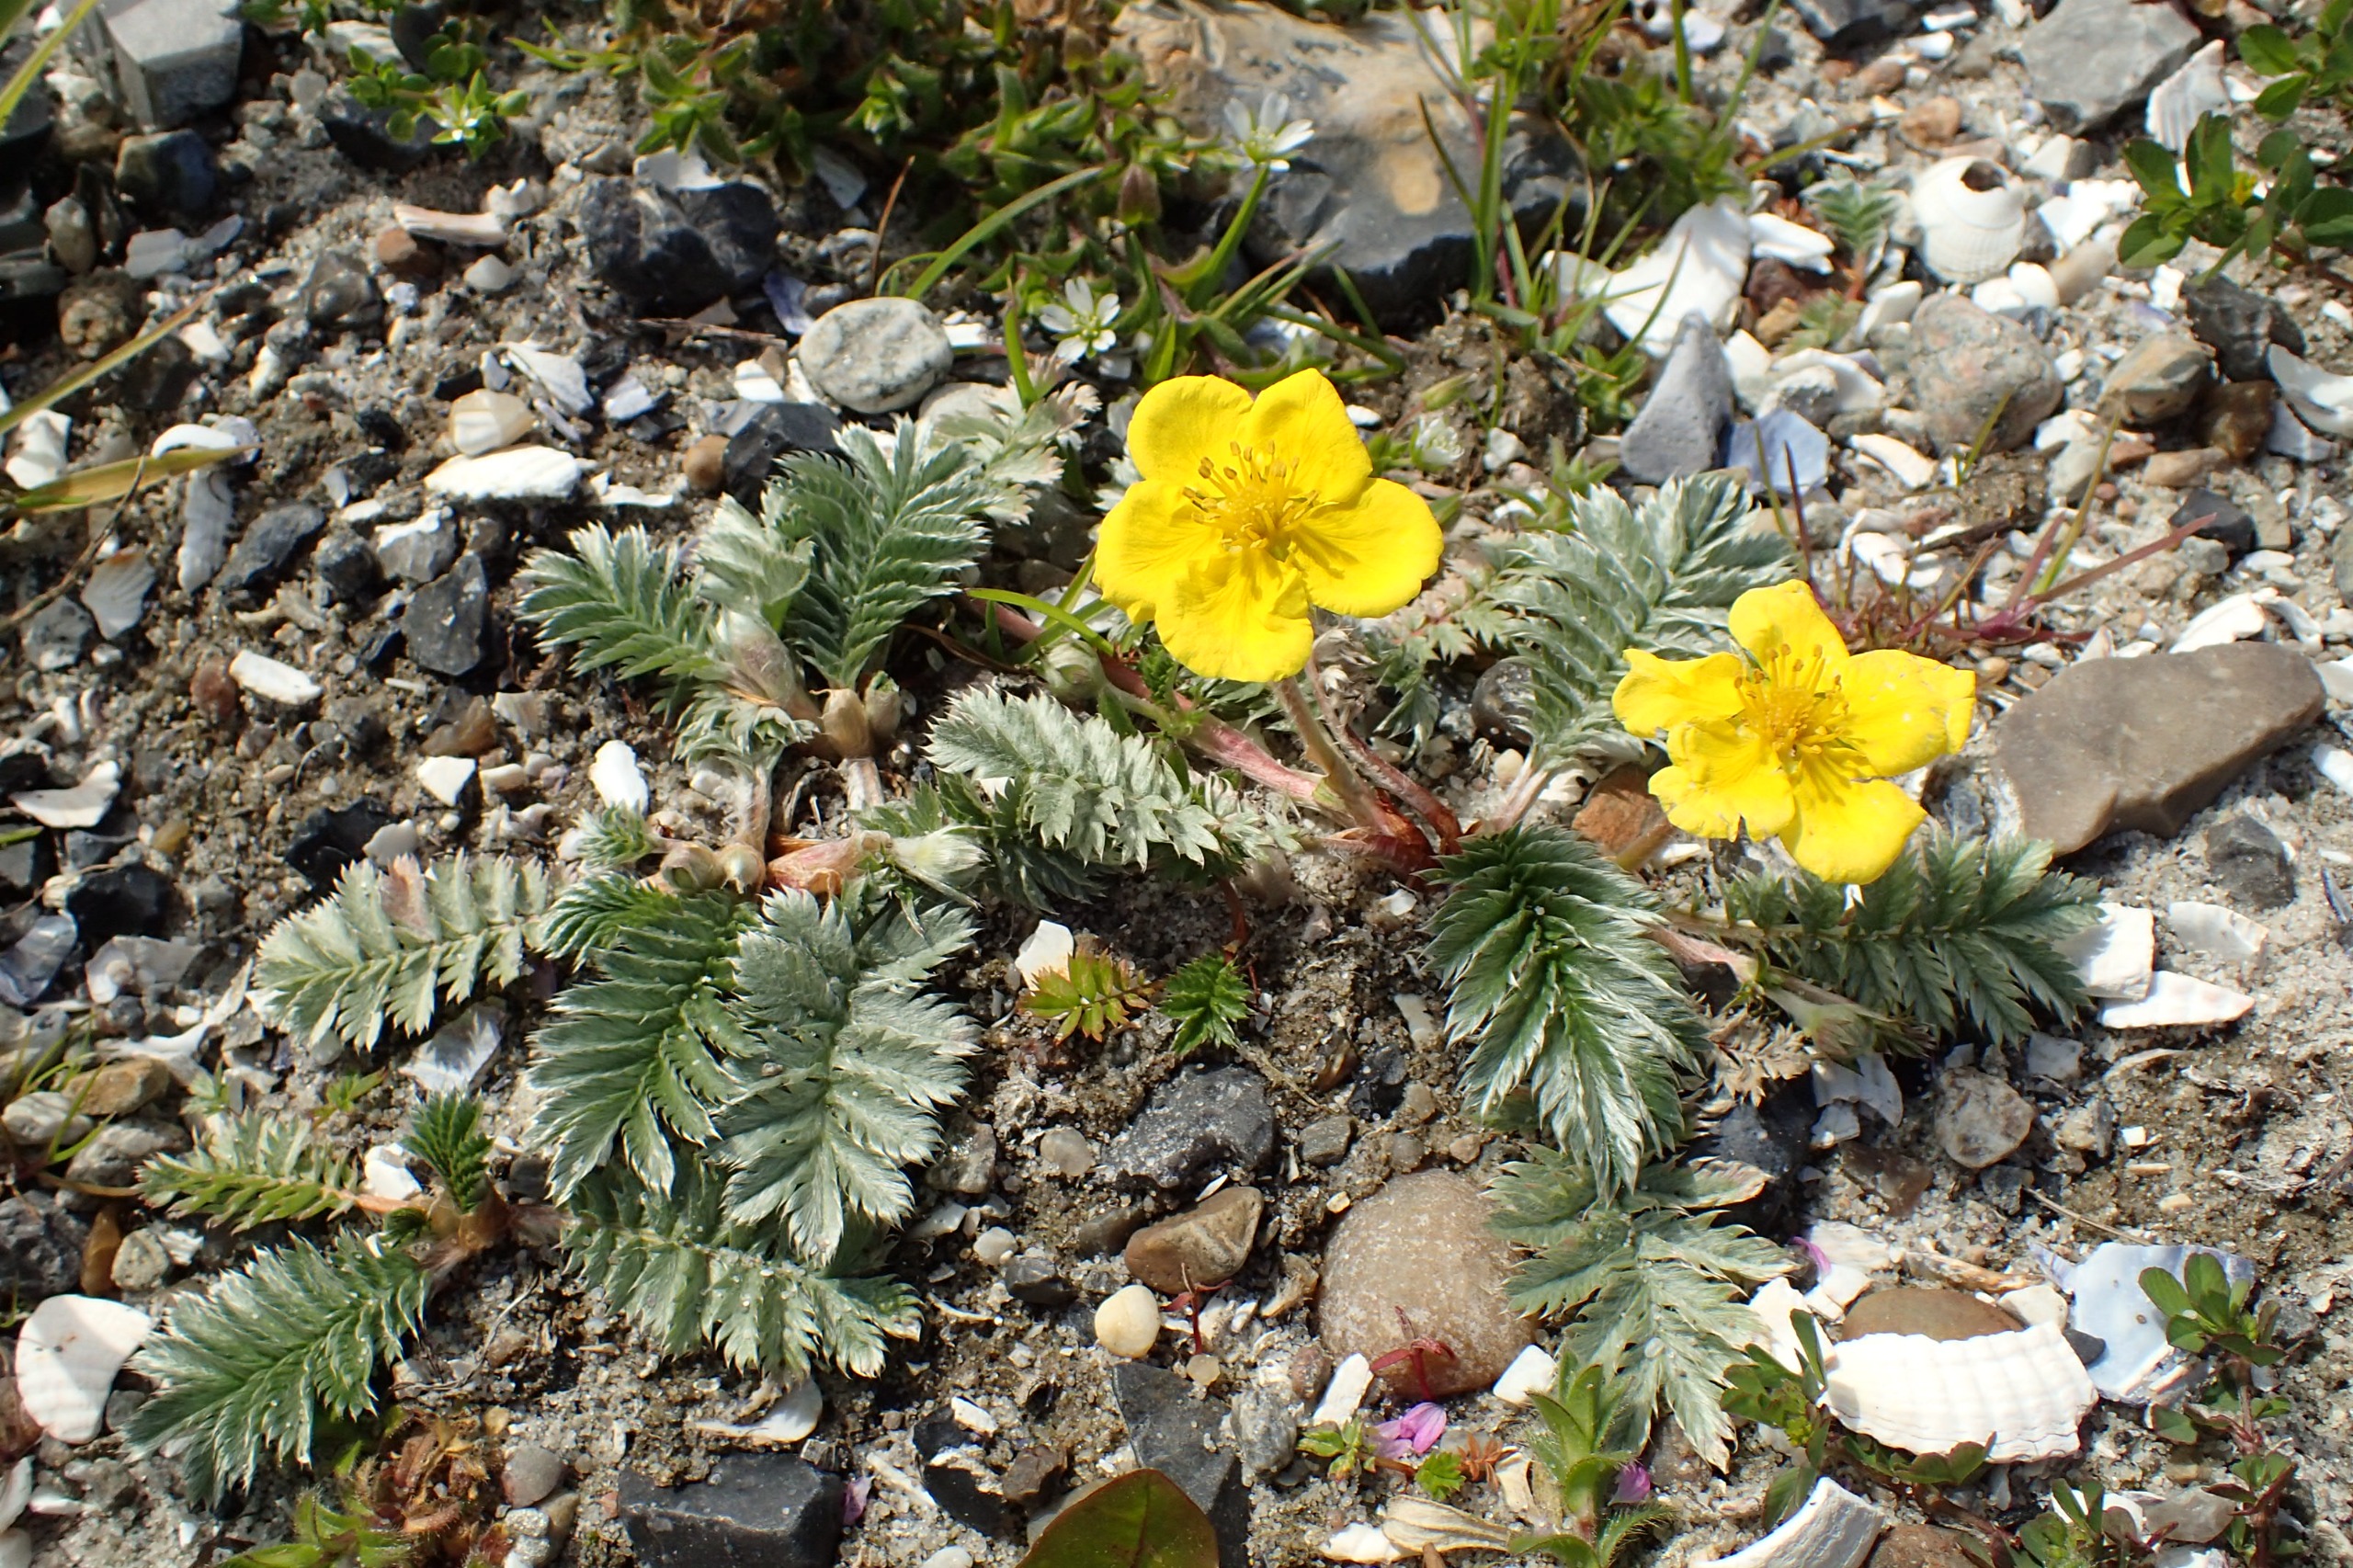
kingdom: Plantae
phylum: Tracheophyta
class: Magnoliopsida
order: Rosales
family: Rosaceae
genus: Argentina
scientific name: Argentina anserina
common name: Gåsepotentil
